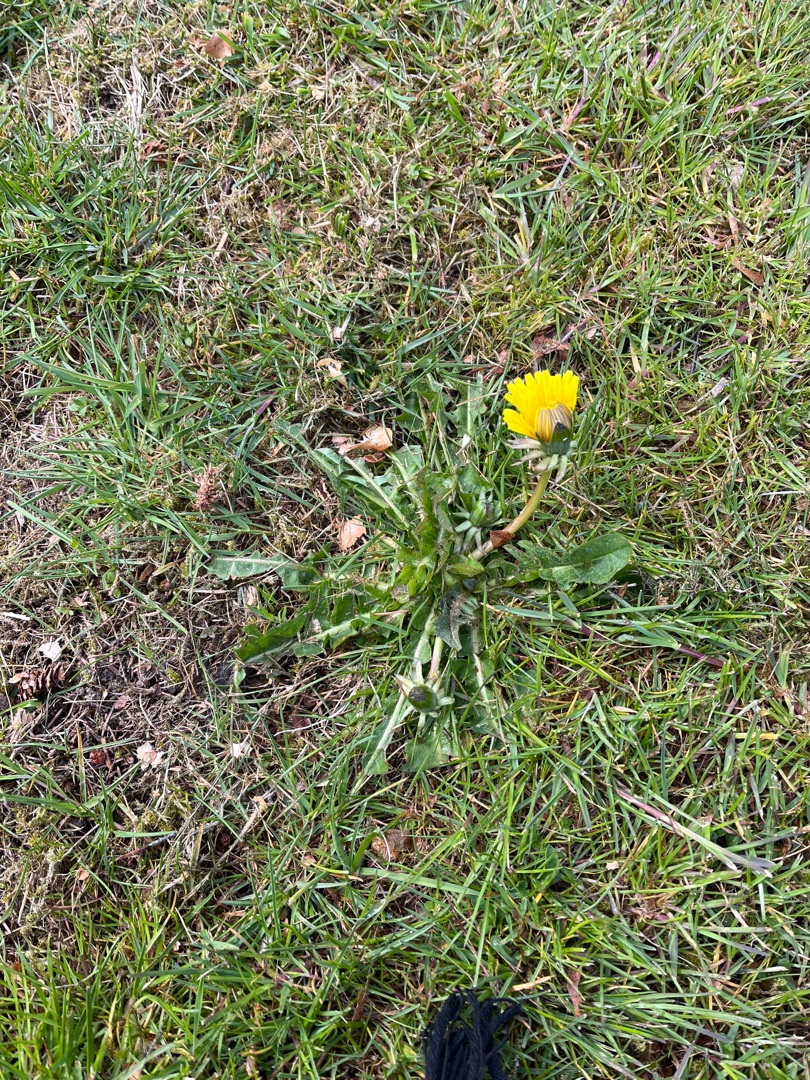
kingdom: Plantae
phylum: Tracheophyta
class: Magnoliopsida
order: Asterales
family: Asteraceae
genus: Taraxacum
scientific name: Taraxacum
